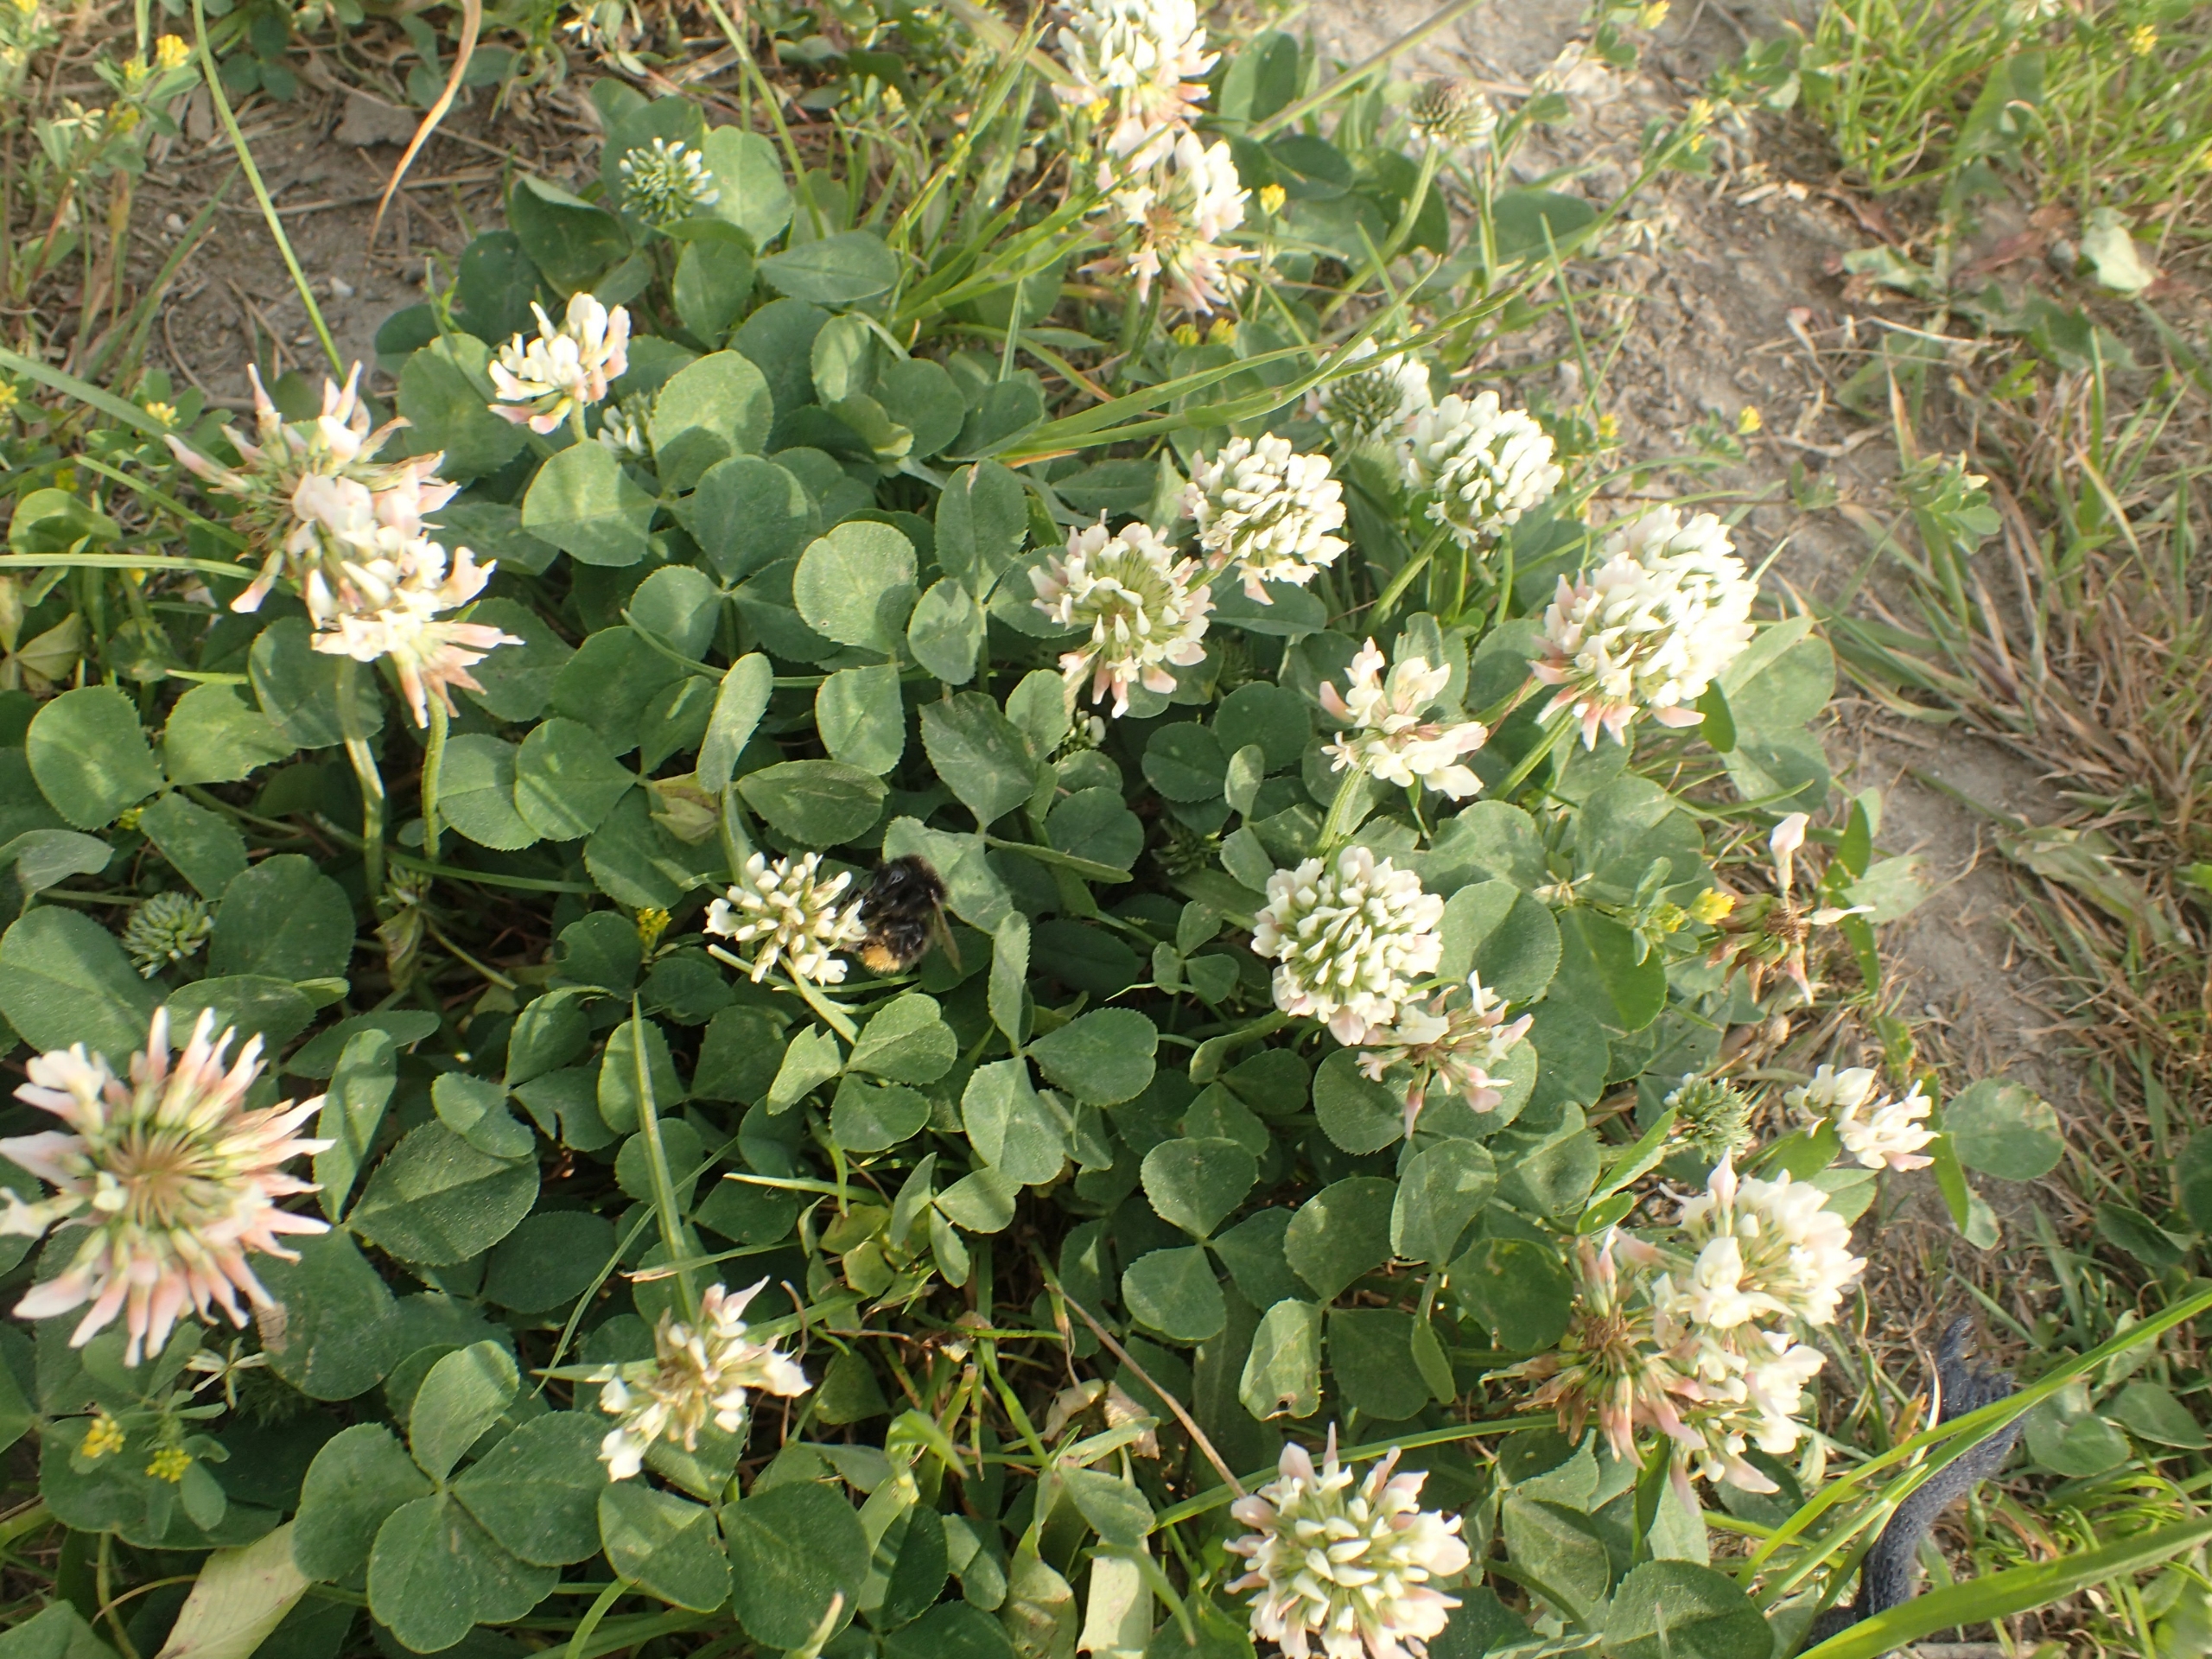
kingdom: Plantae
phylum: Tracheophyta
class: Magnoliopsida
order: Fabales
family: Fabaceae
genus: Trifolium
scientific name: Trifolium repens
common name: Hvid-kløver
